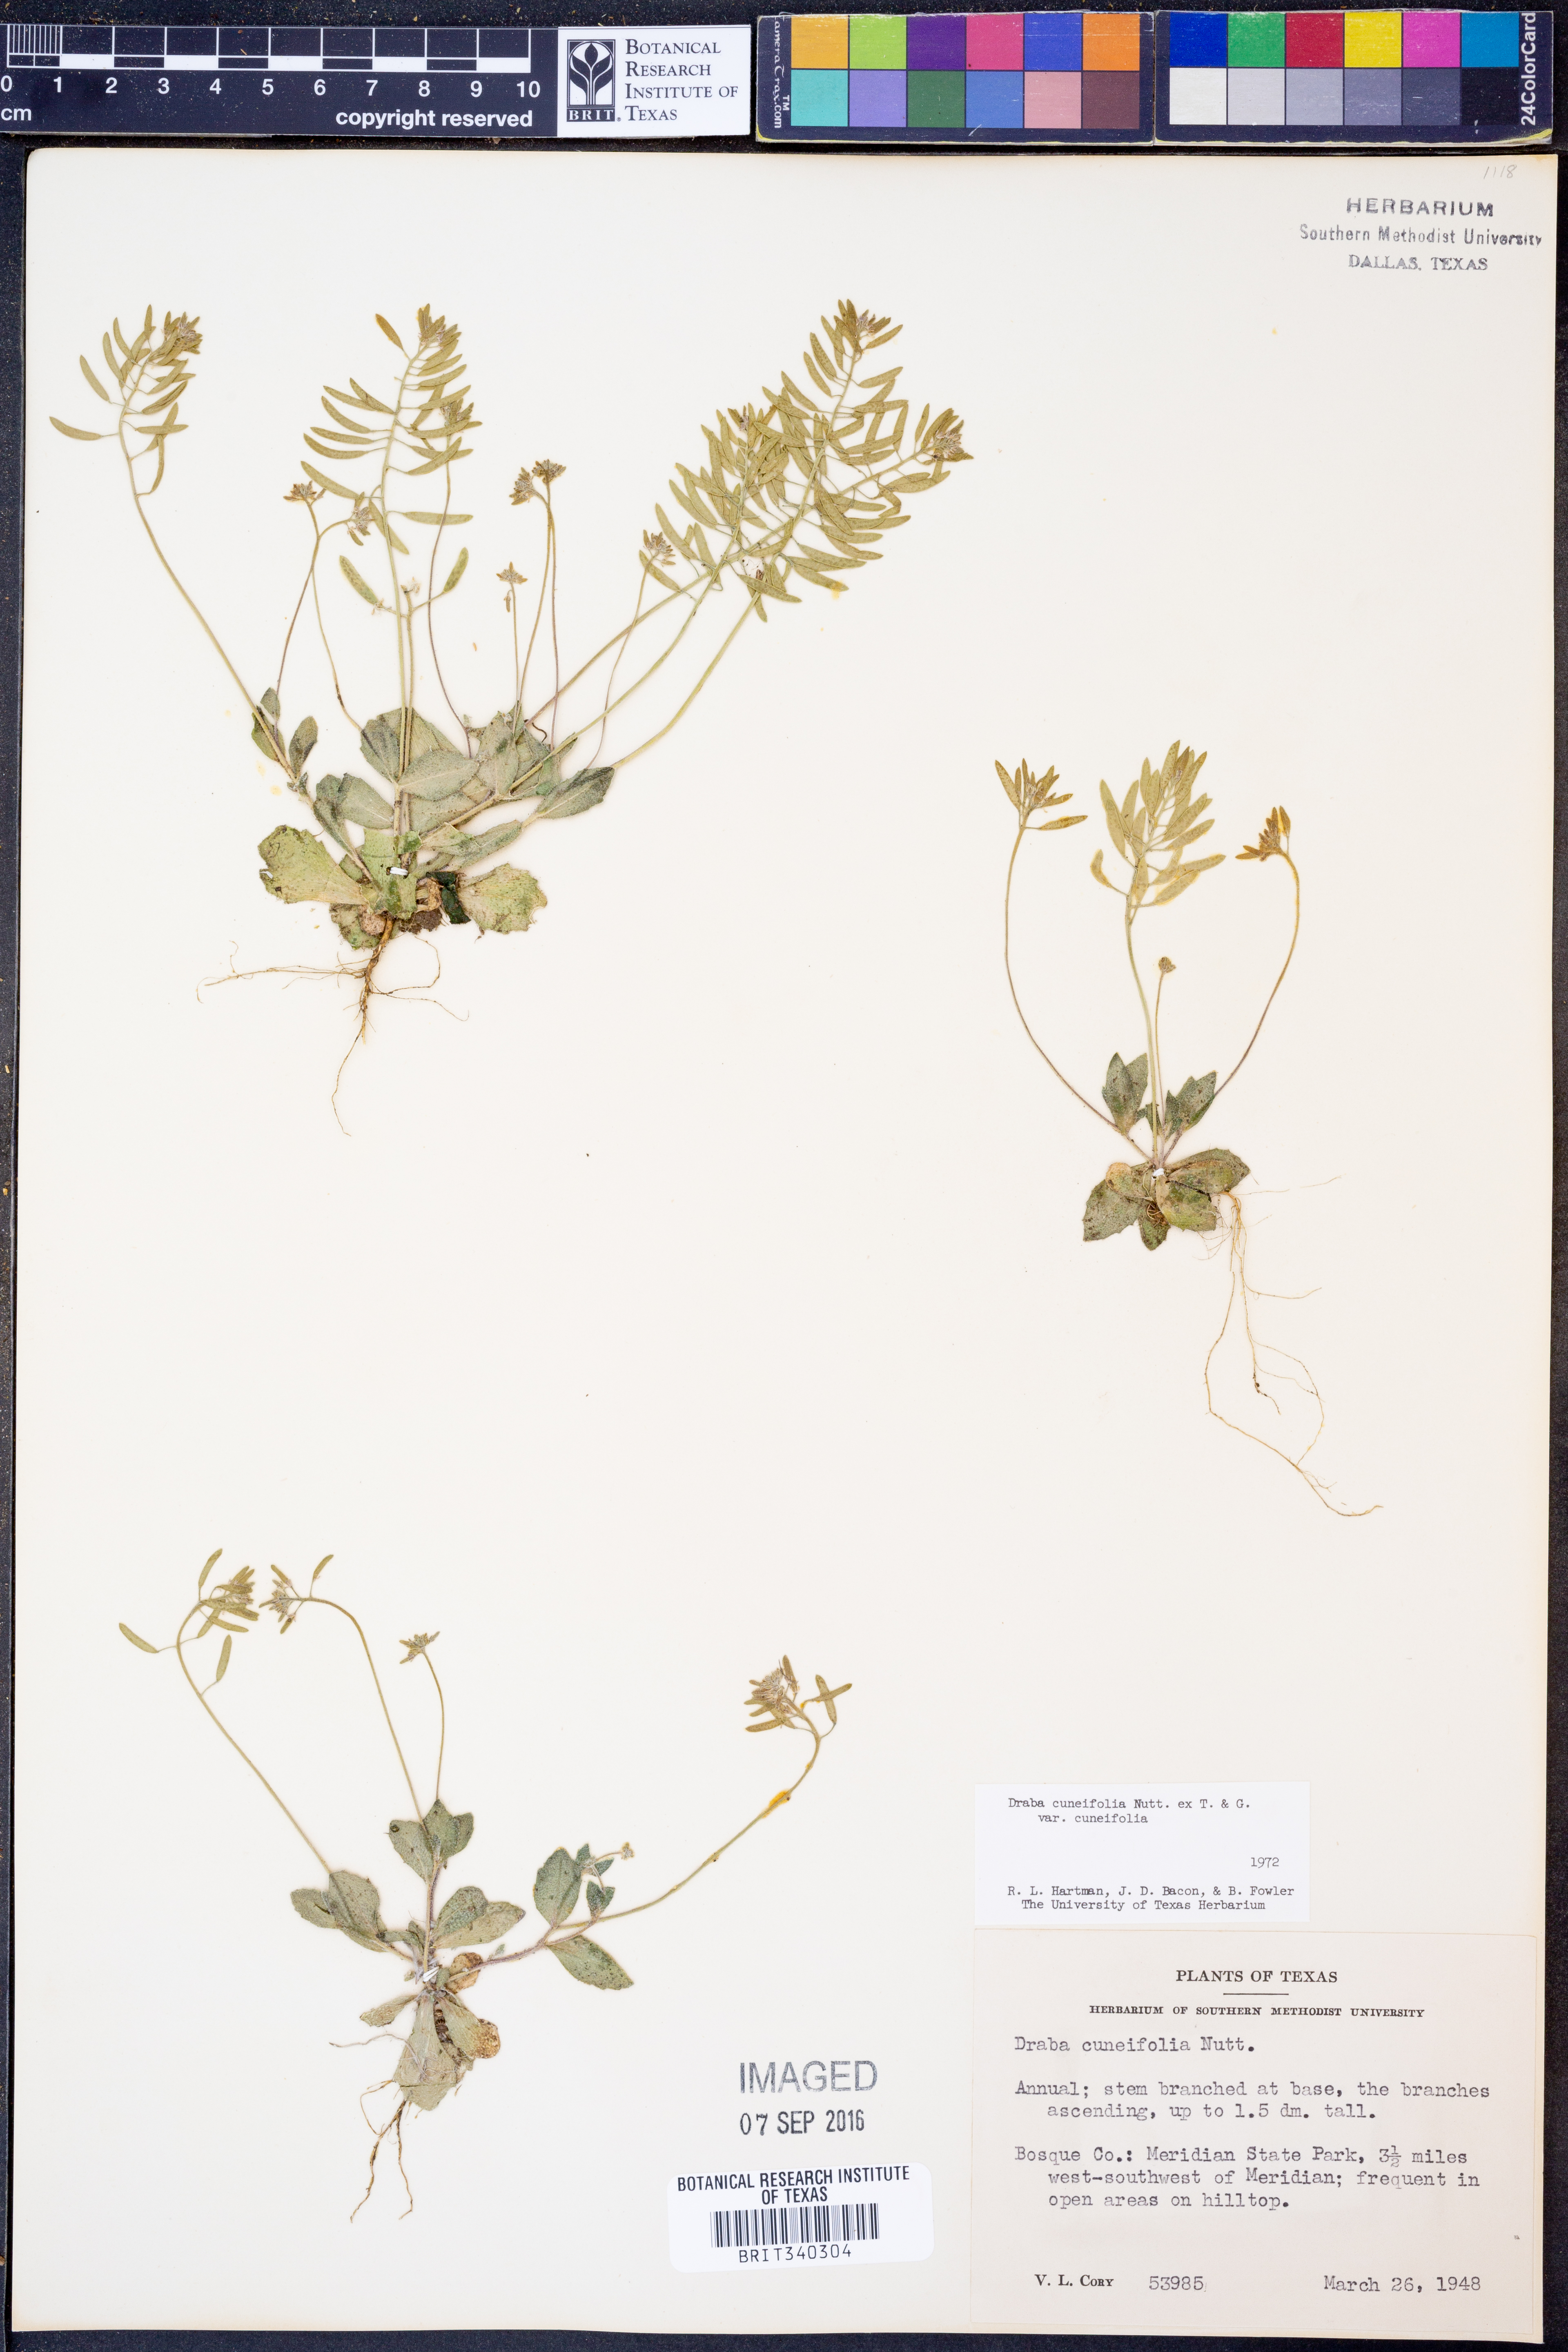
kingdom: Plantae
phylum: Tracheophyta
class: Magnoliopsida
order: Brassicales
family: Brassicaceae
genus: Tomostima
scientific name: Tomostima cuneifolia
